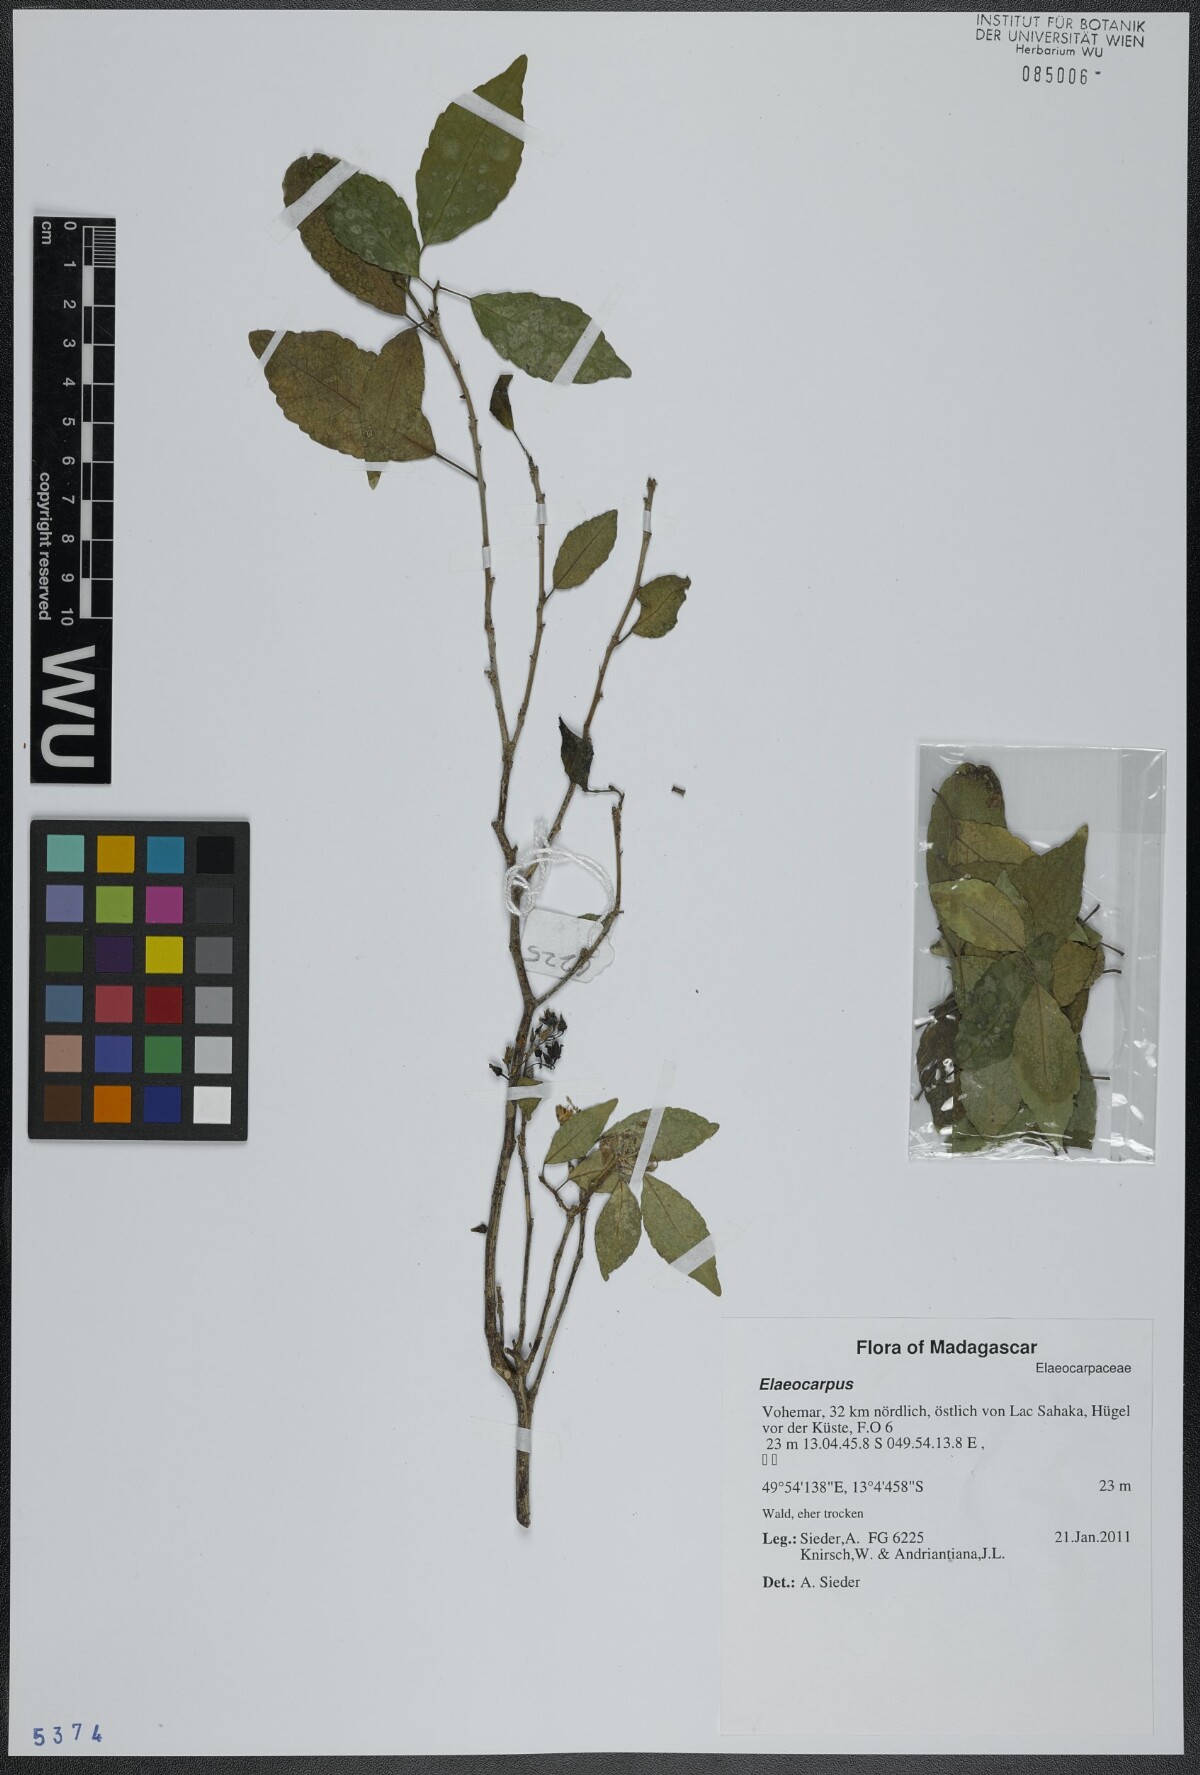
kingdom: Plantae
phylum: Tracheophyta
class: Magnoliopsida
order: Oxalidales
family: Elaeocarpaceae
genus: Elaeocarpus
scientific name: Elaeocarpus
